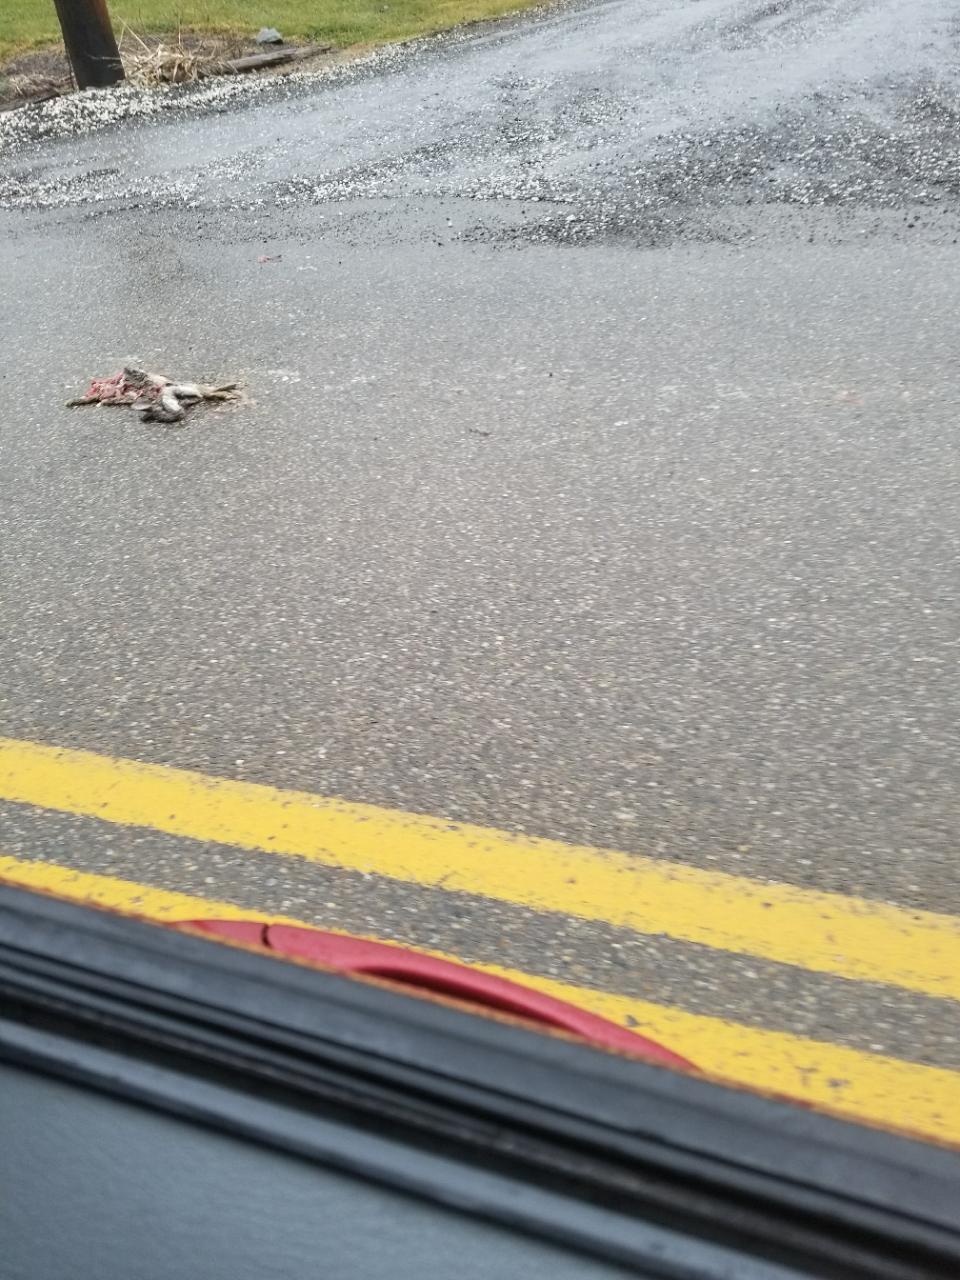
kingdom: Animalia
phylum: Chordata
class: Mammalia
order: Lagomorpha
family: Leporidae
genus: Oryctolagus
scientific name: Oryctolagus cuniculus
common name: European rabbit
